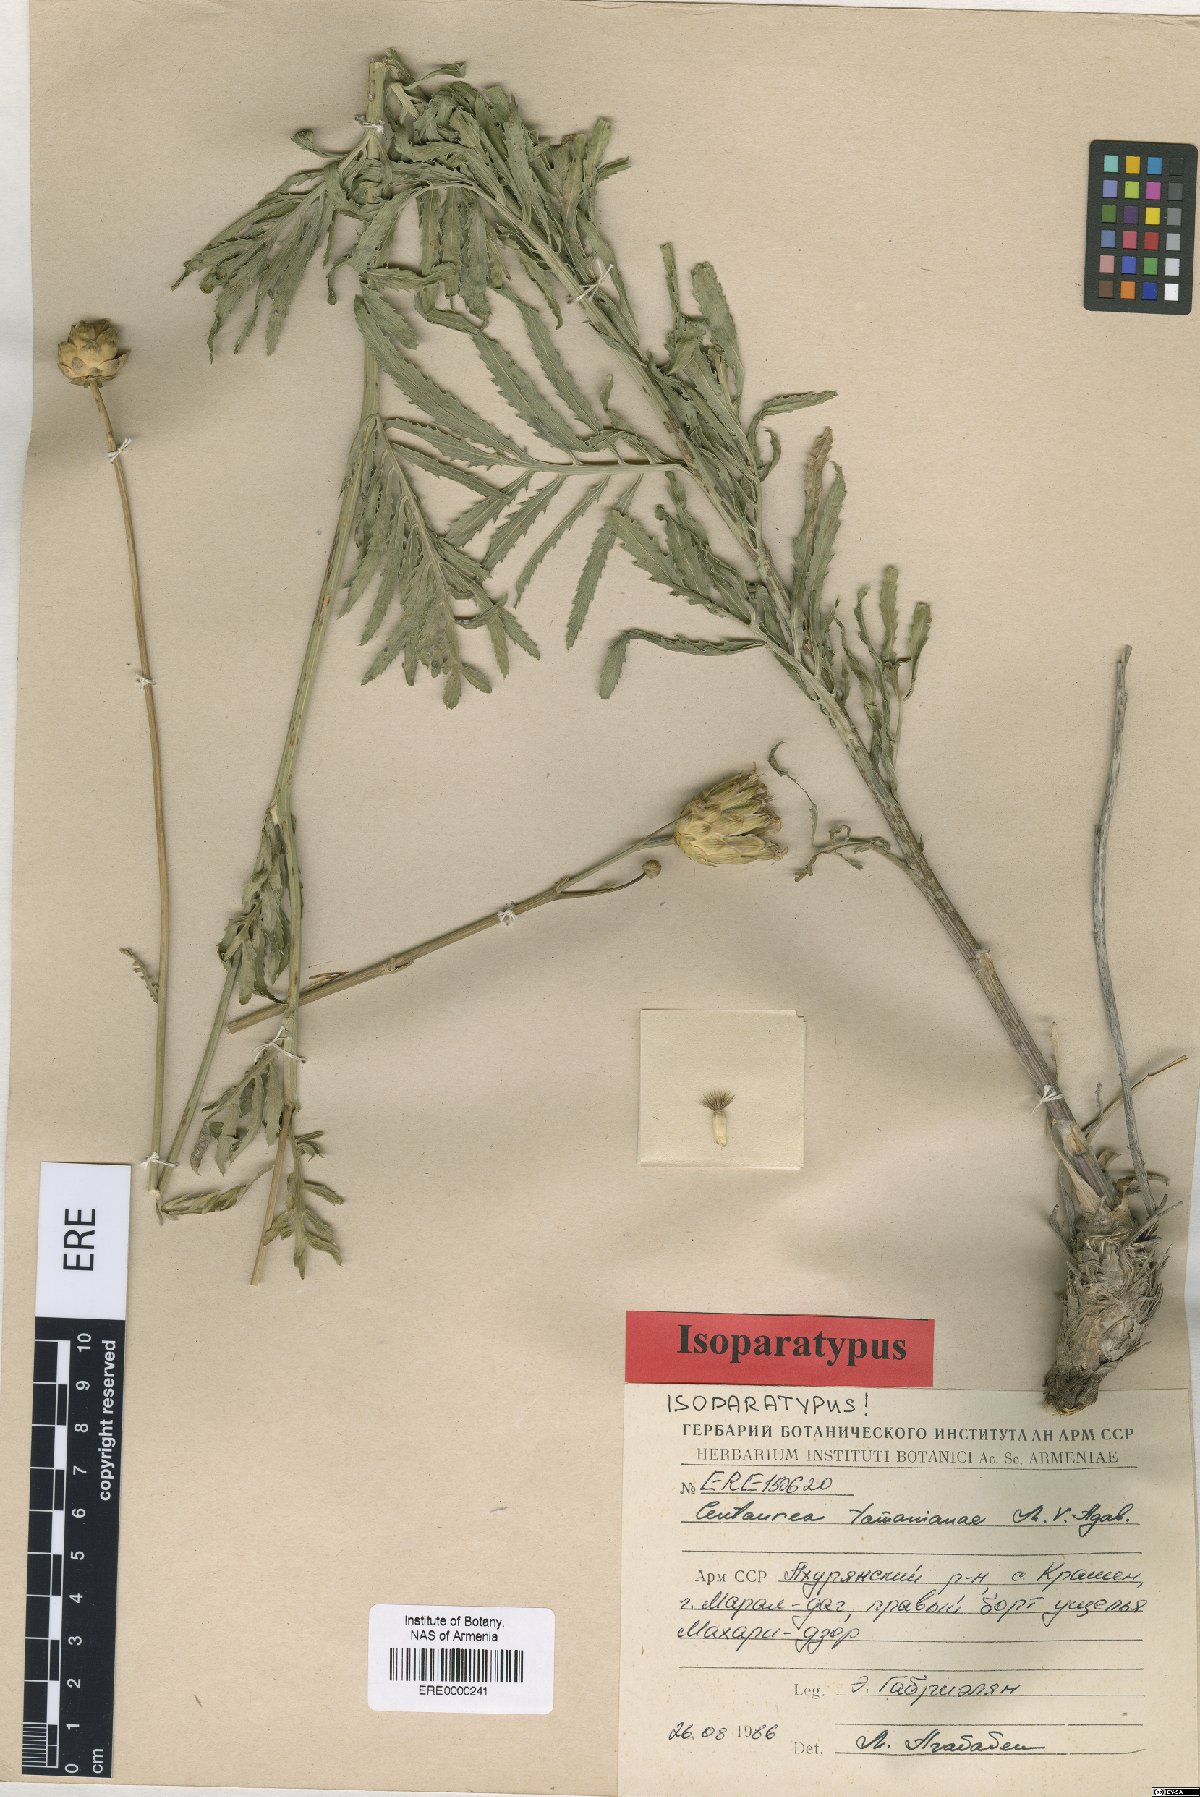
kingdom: Plantae
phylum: Tracheophyta
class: Magnoliopsida
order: Asterales
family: Asteraceae
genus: Rhaponticoides
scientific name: Rhaponticoides tamanianae
